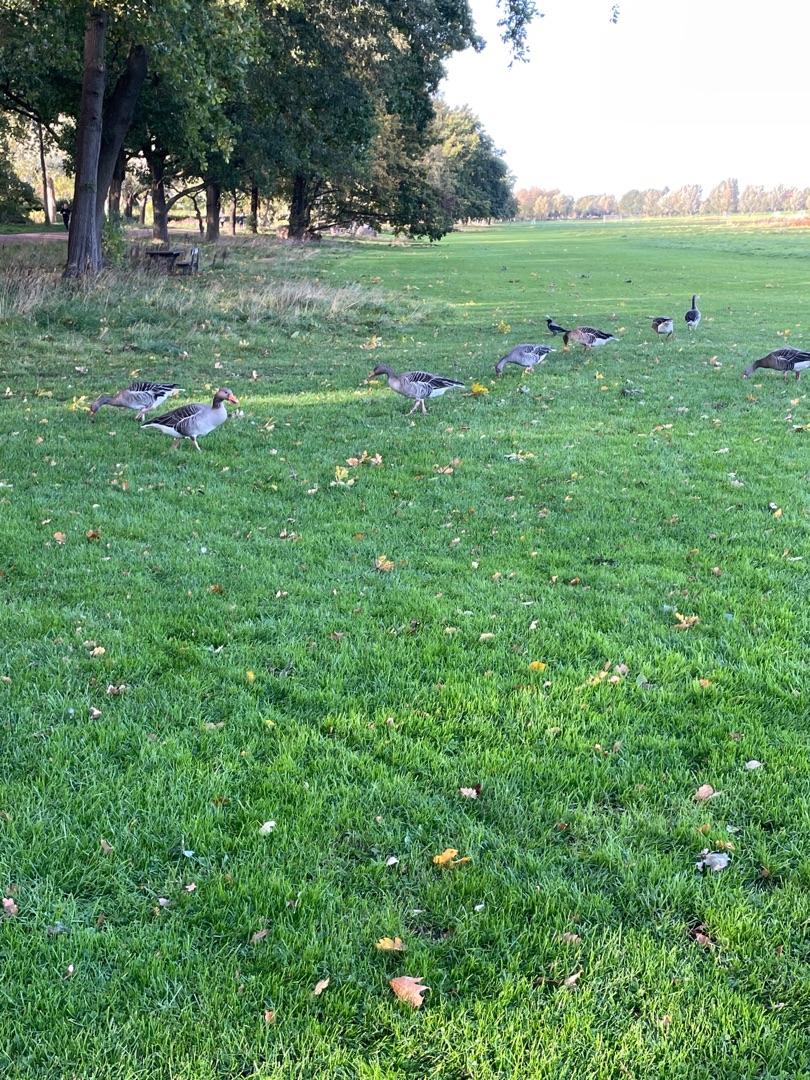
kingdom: Animalia
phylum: Chordata
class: Aves
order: Anseriformes
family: Anatidae
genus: Anser
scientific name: Anser anser
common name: Grågås
